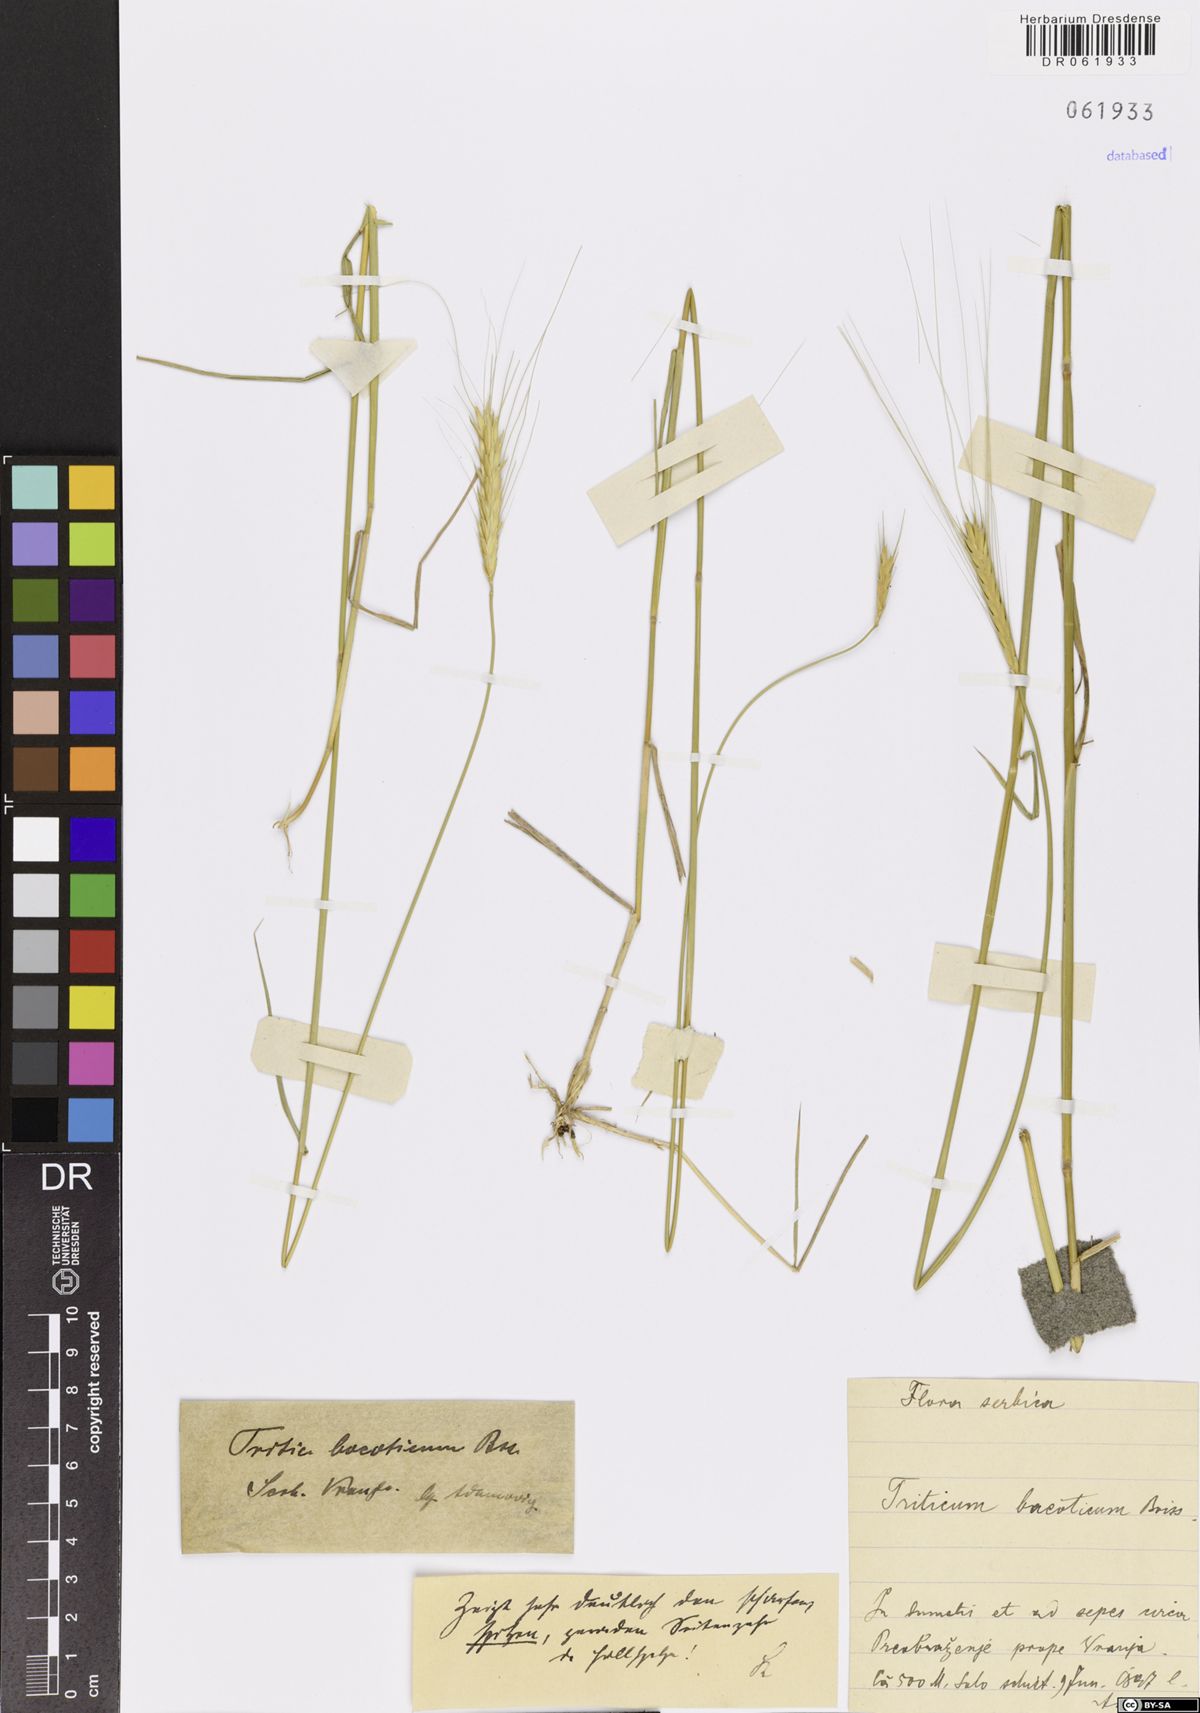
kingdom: Plantae
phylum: Tracheophyta
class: Liliopsida
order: Poales
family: Poaceae
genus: Triticum
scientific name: Triticum monococcum
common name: Einkorn
